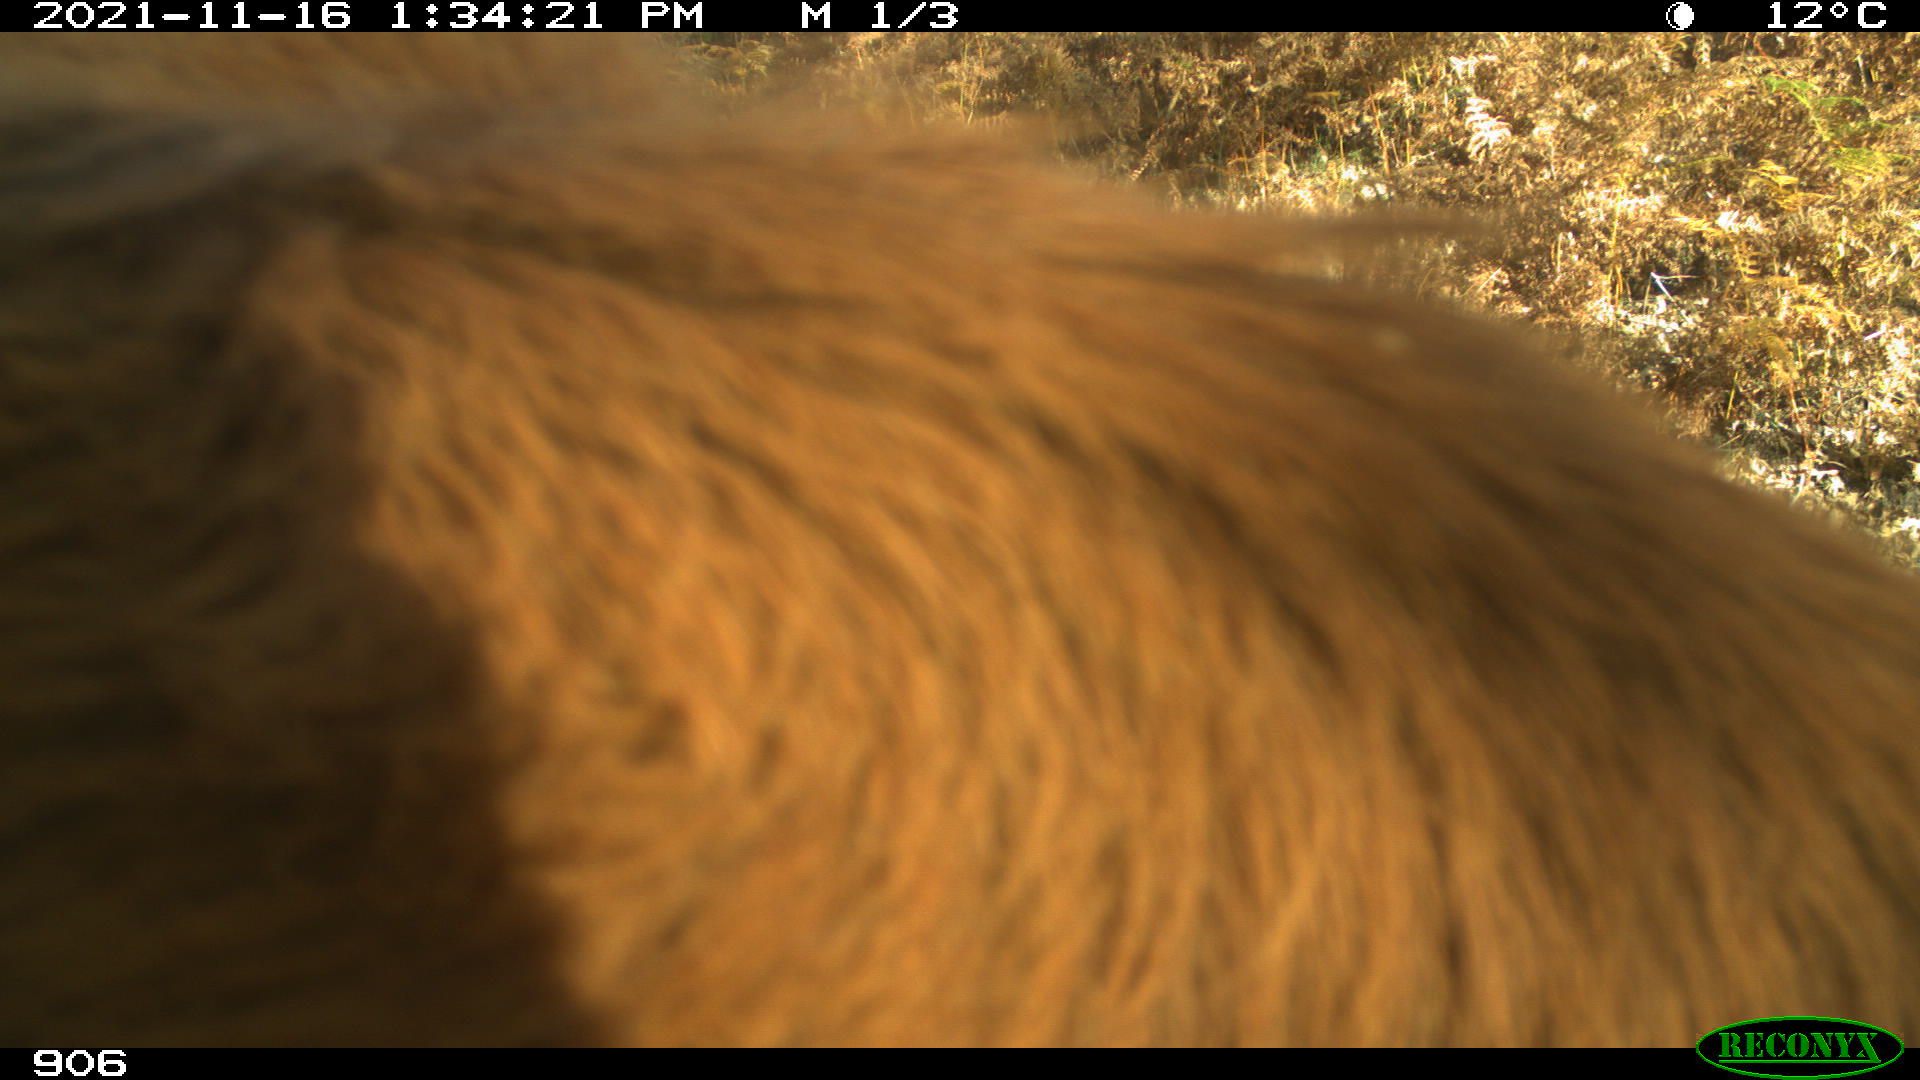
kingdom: Animalia
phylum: Chordata
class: Mammalia
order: Artiodactyla
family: Bovidae
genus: Bos
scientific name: Bos taurus
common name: Domesticated cattle
